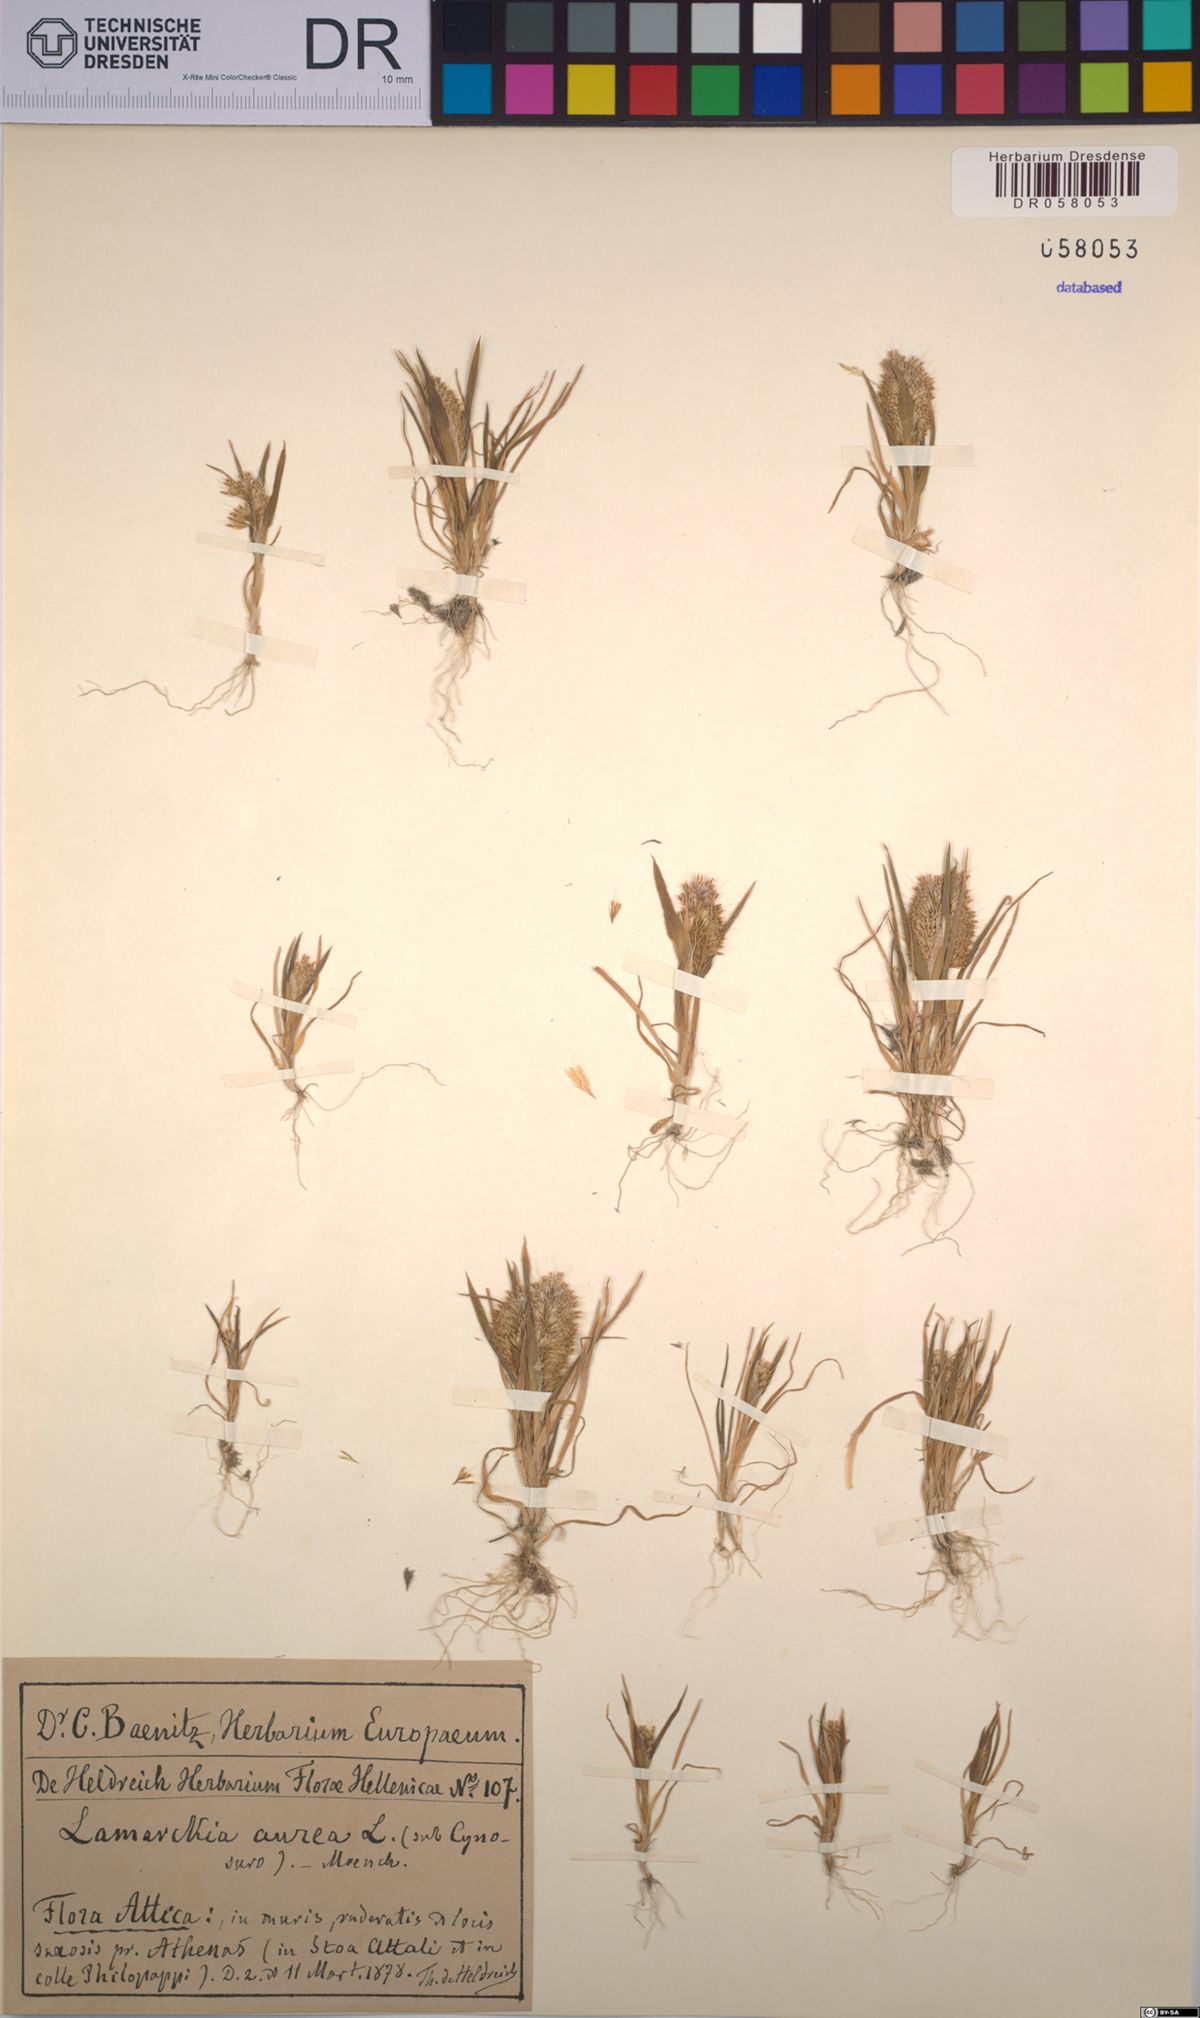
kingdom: Plantae
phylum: Tracheophyta
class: Liliopsida
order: Poales
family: Poaceae
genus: Lamarckia
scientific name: Lamarckia aurea
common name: Golden dog's-tail
